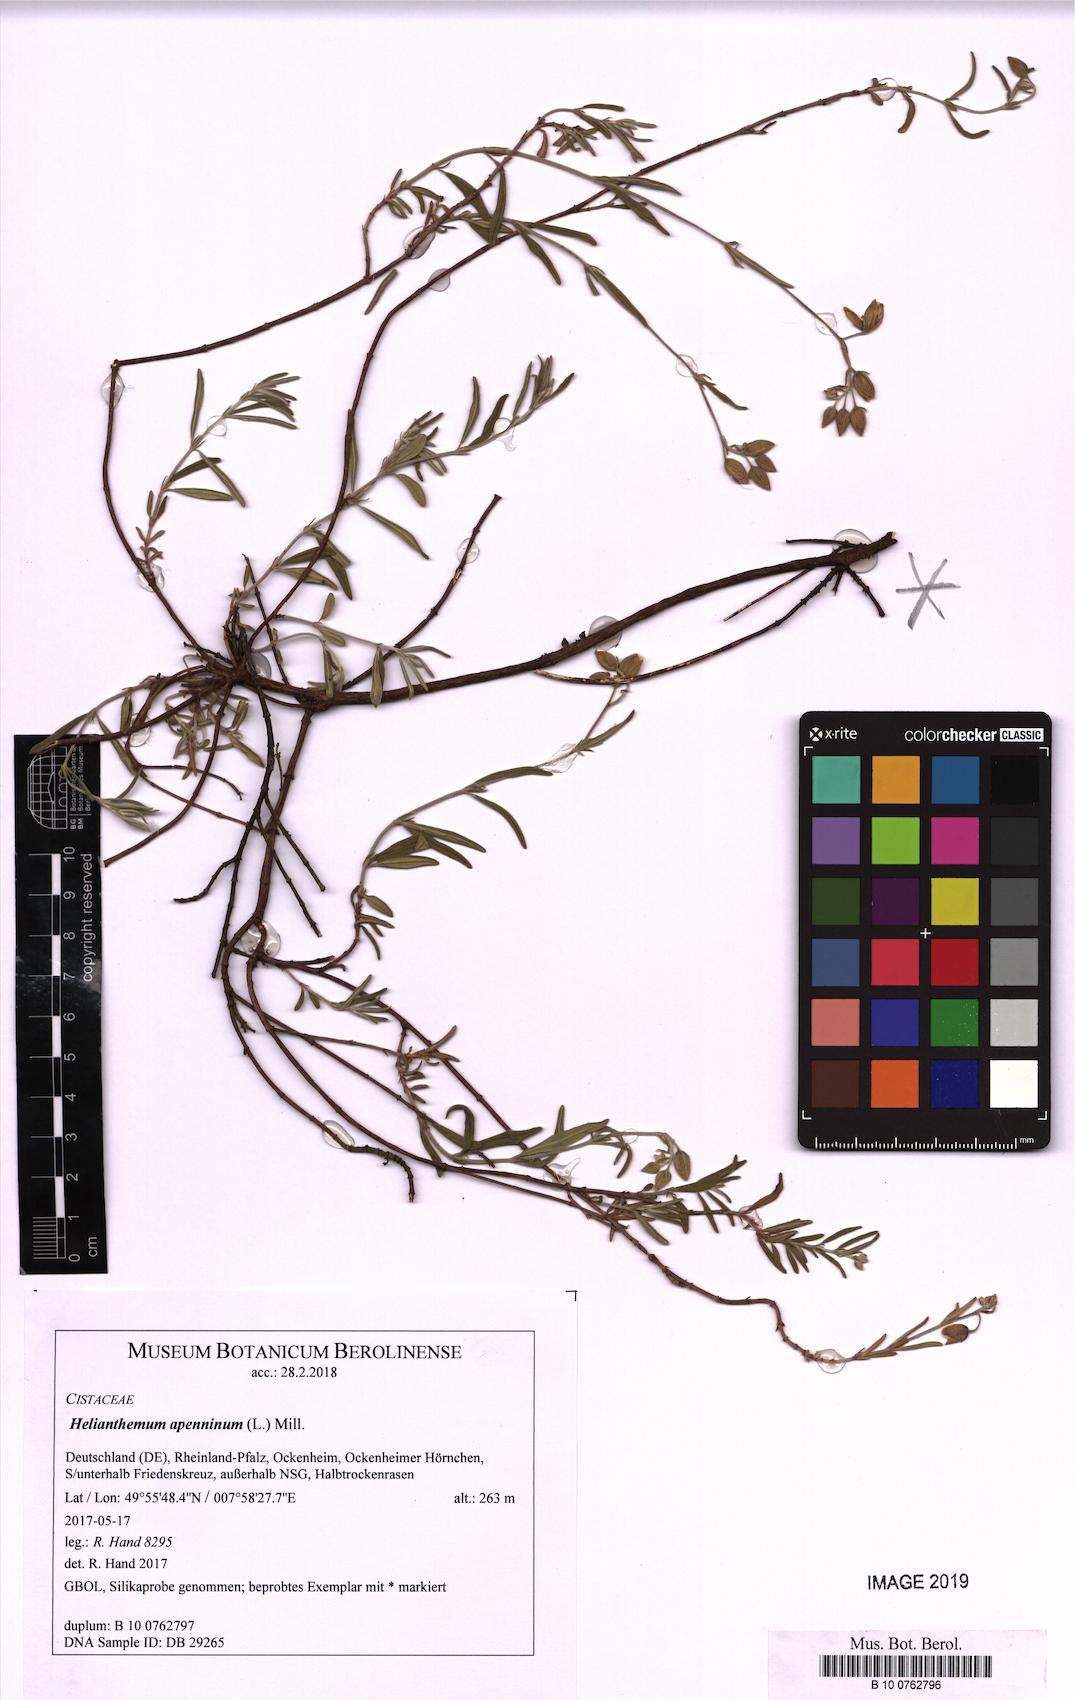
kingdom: Plantae
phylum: Tracheophyta
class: Magnoliopsida
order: Malvales
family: Cistaceae
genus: Helianthemum
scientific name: Helianthemum apenninum
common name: White rock-rose
